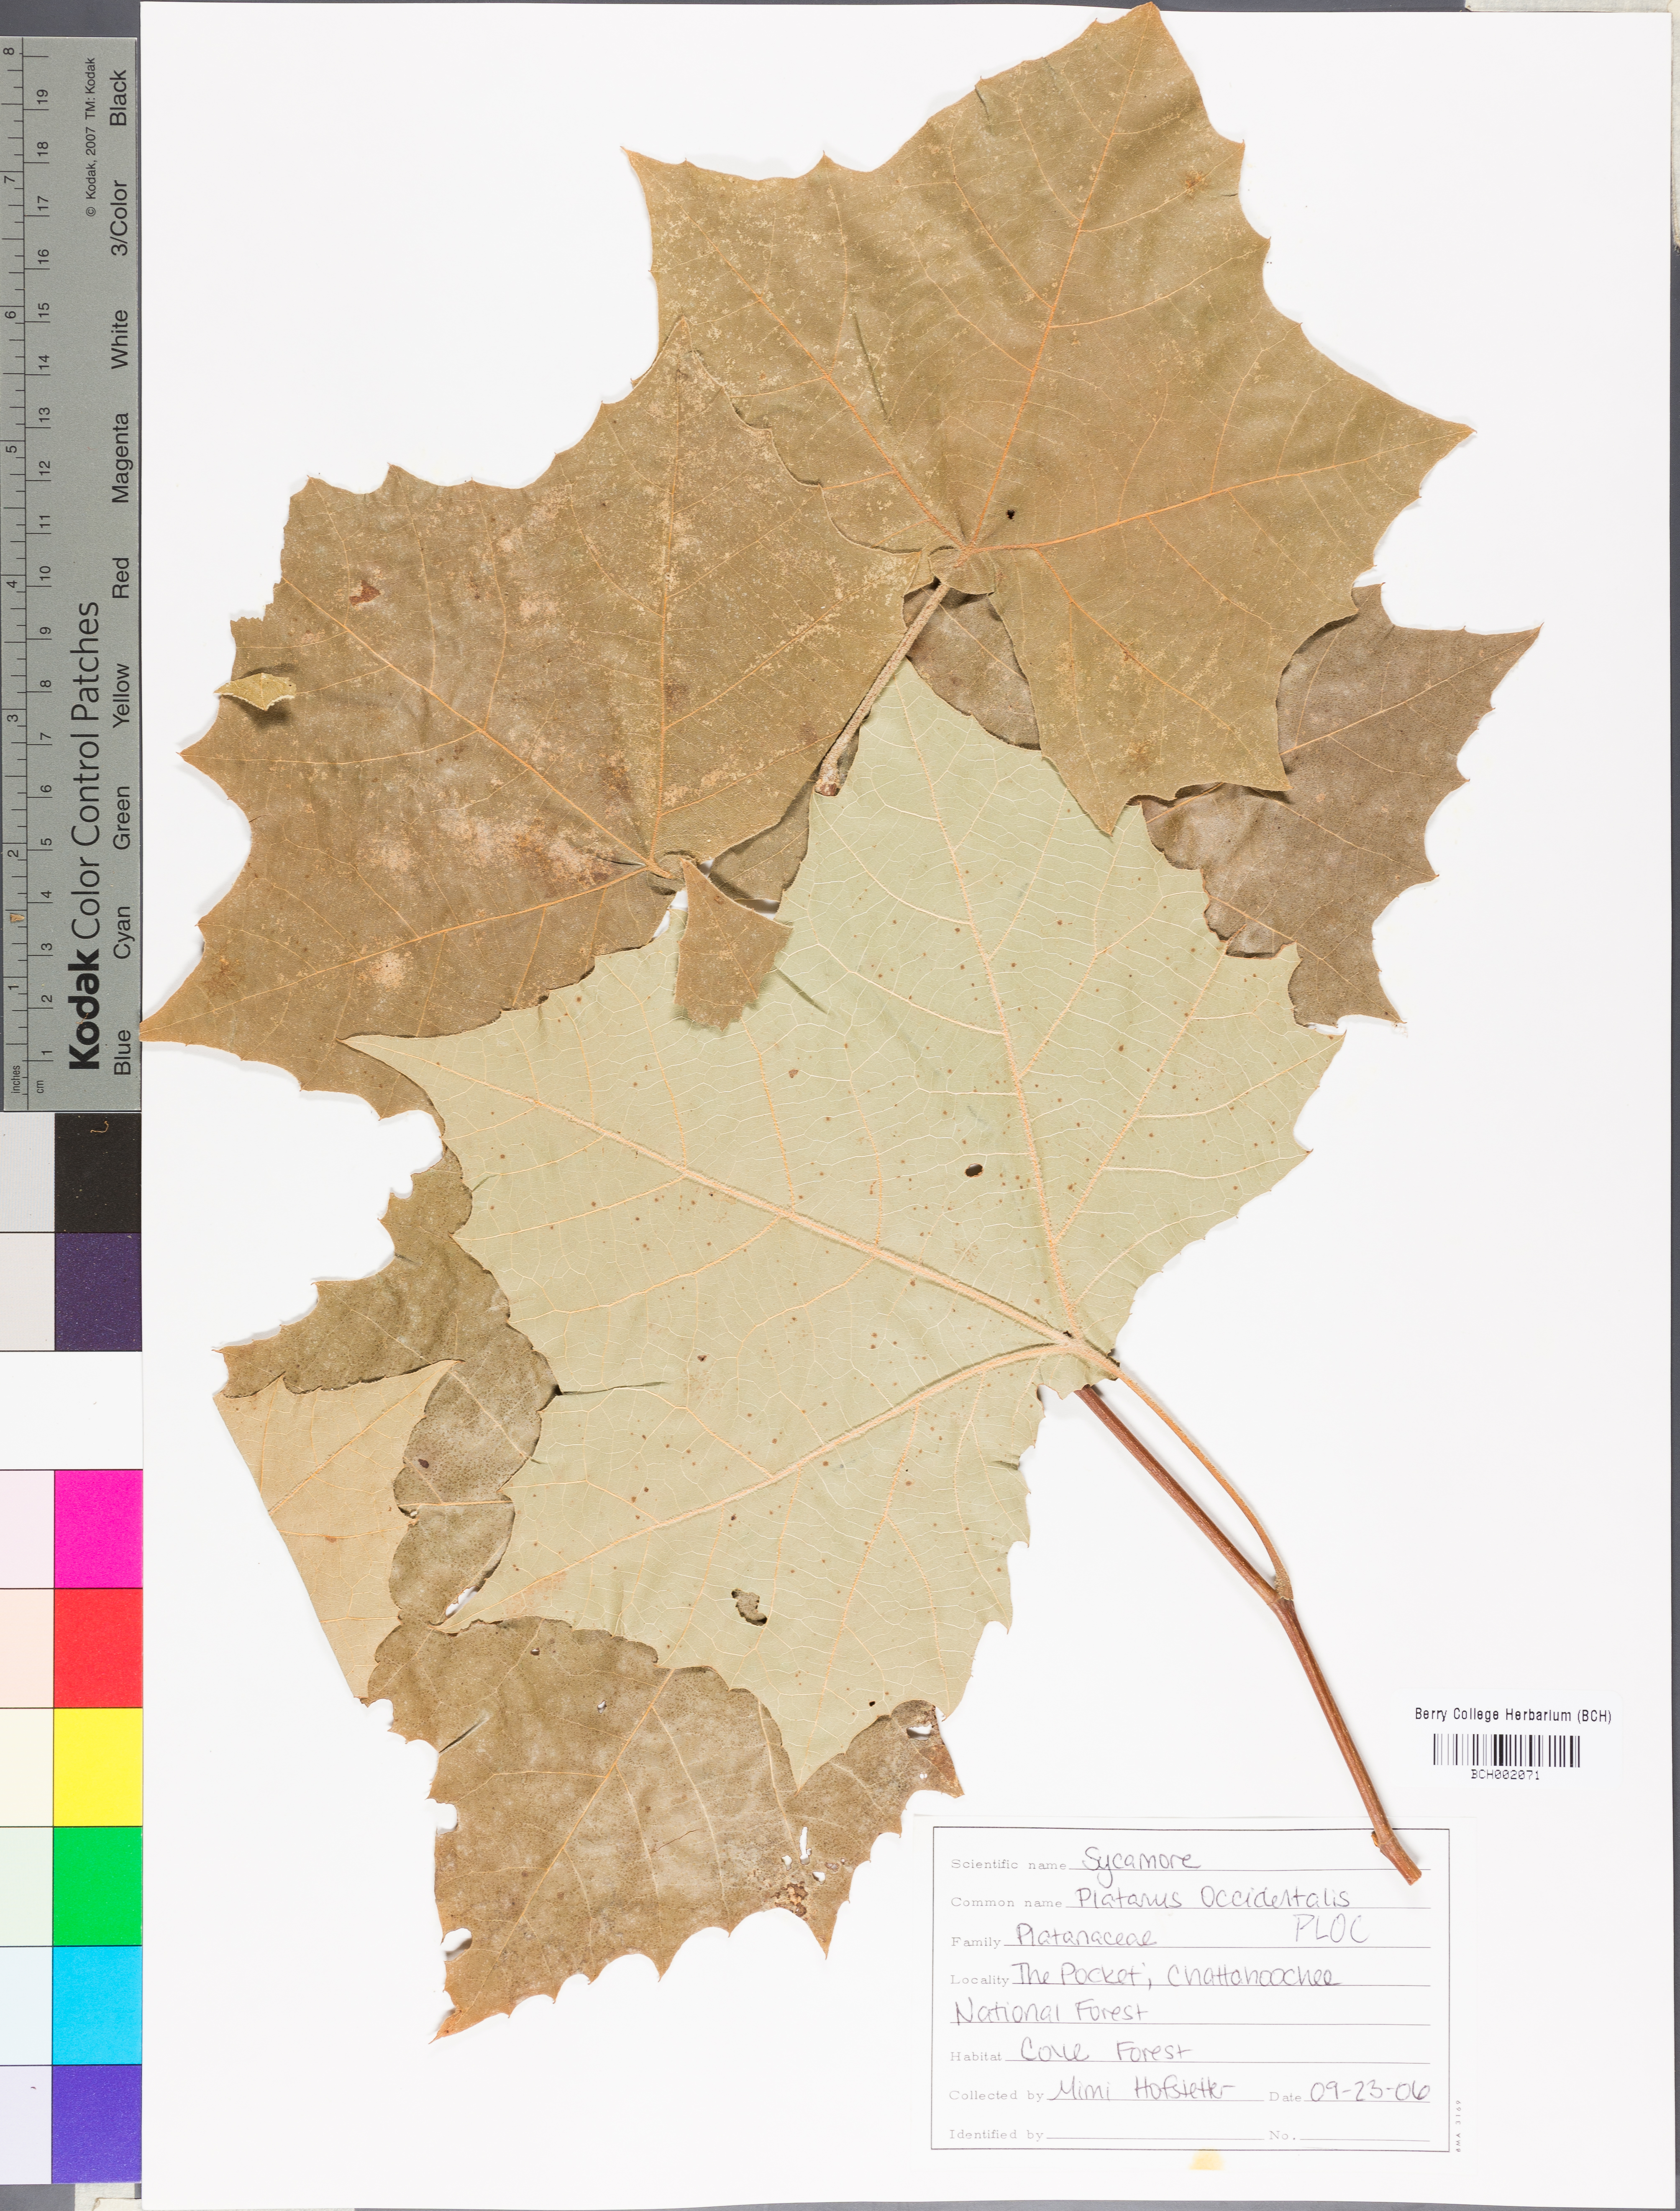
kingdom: Plantae
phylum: Tracheophyta
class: Magnoliopsida
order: Proteales
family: Platanaceae
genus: Platanus
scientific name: Platanus occidentalis
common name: American sycamore
